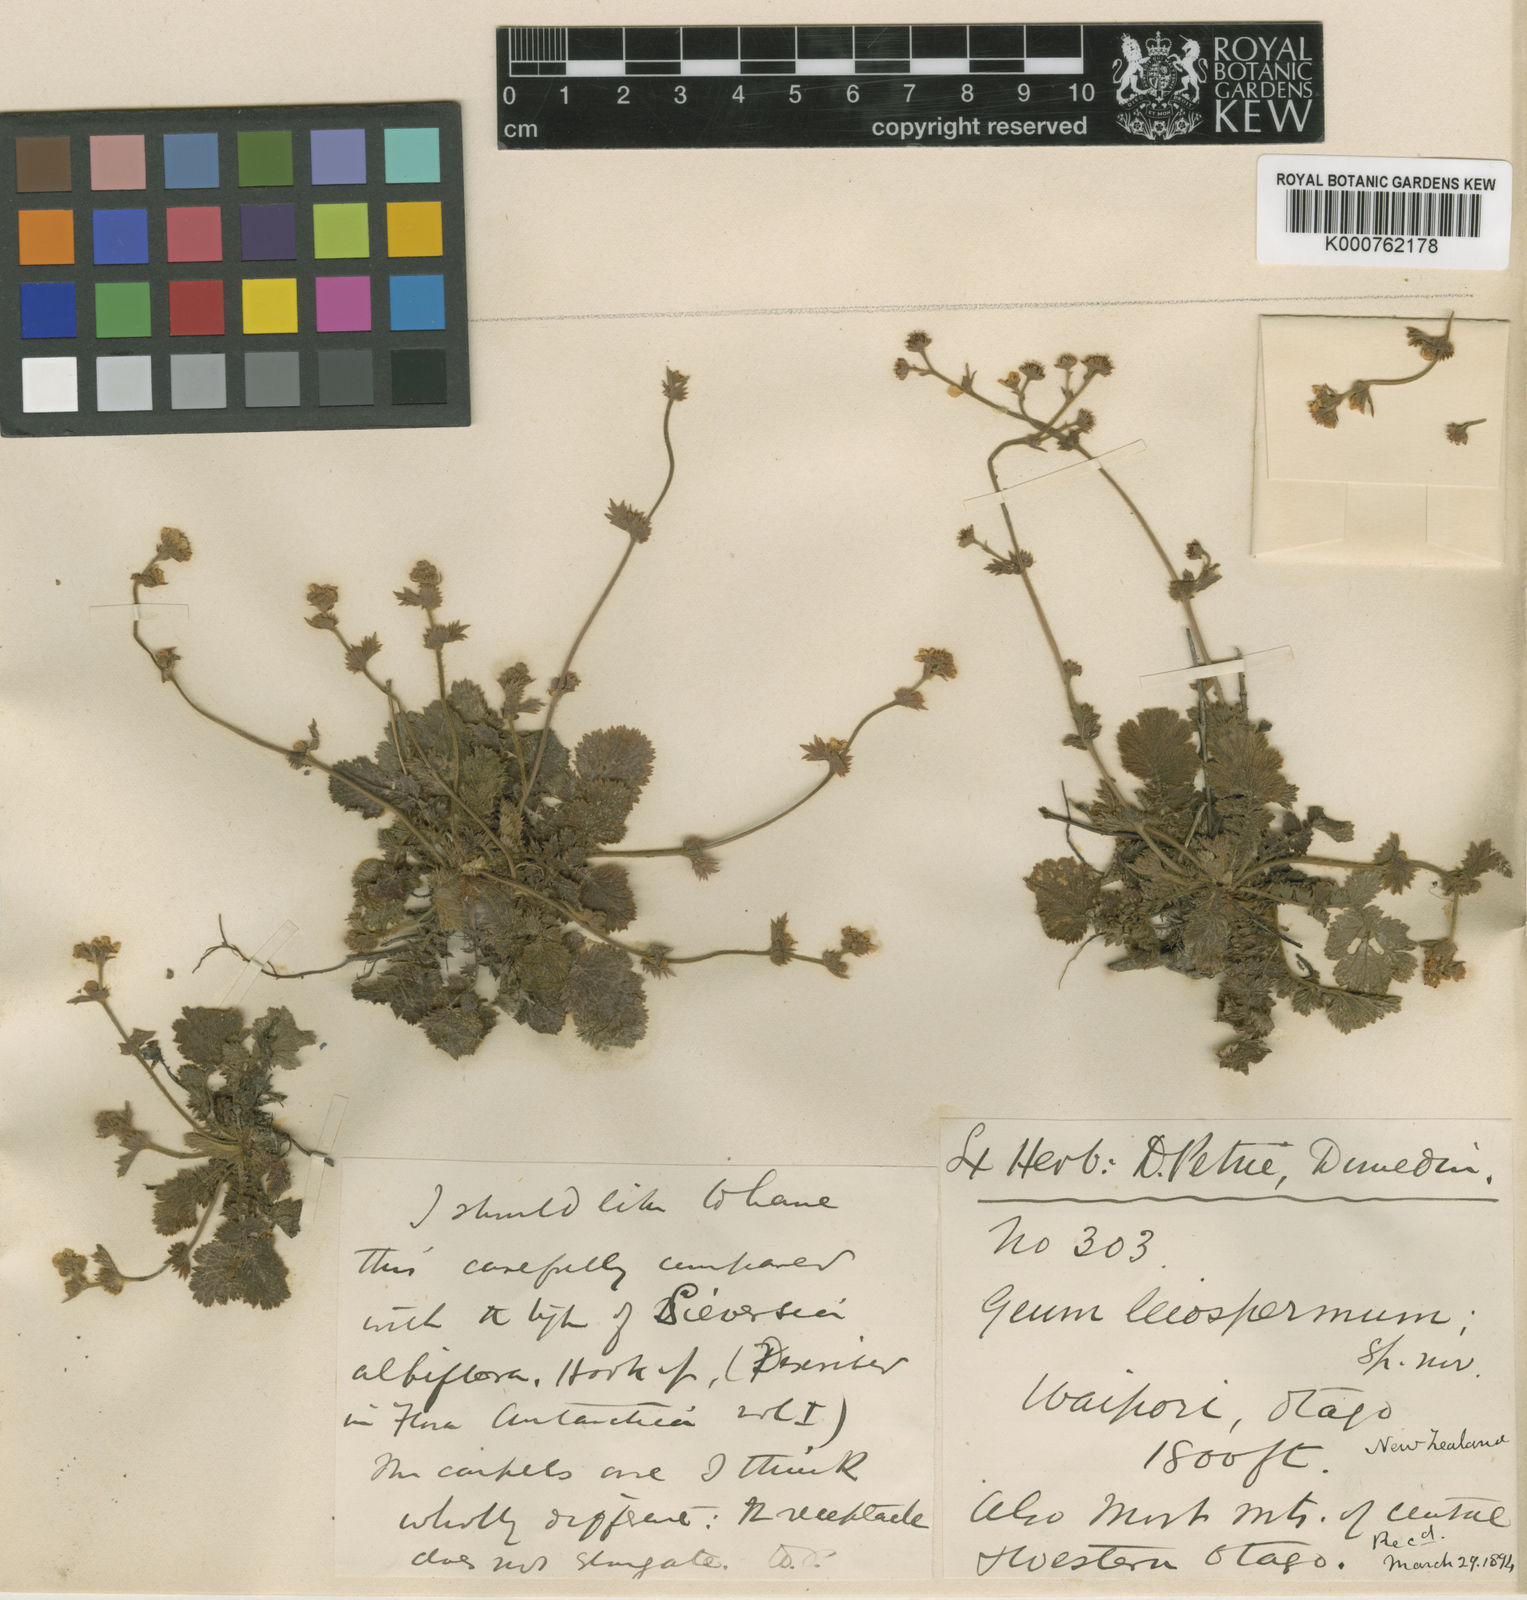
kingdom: Plantae
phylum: Tracheophyta
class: Magnoliopsida
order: Rosales
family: Rosaceae
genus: Geum
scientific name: Geum leiospermum
